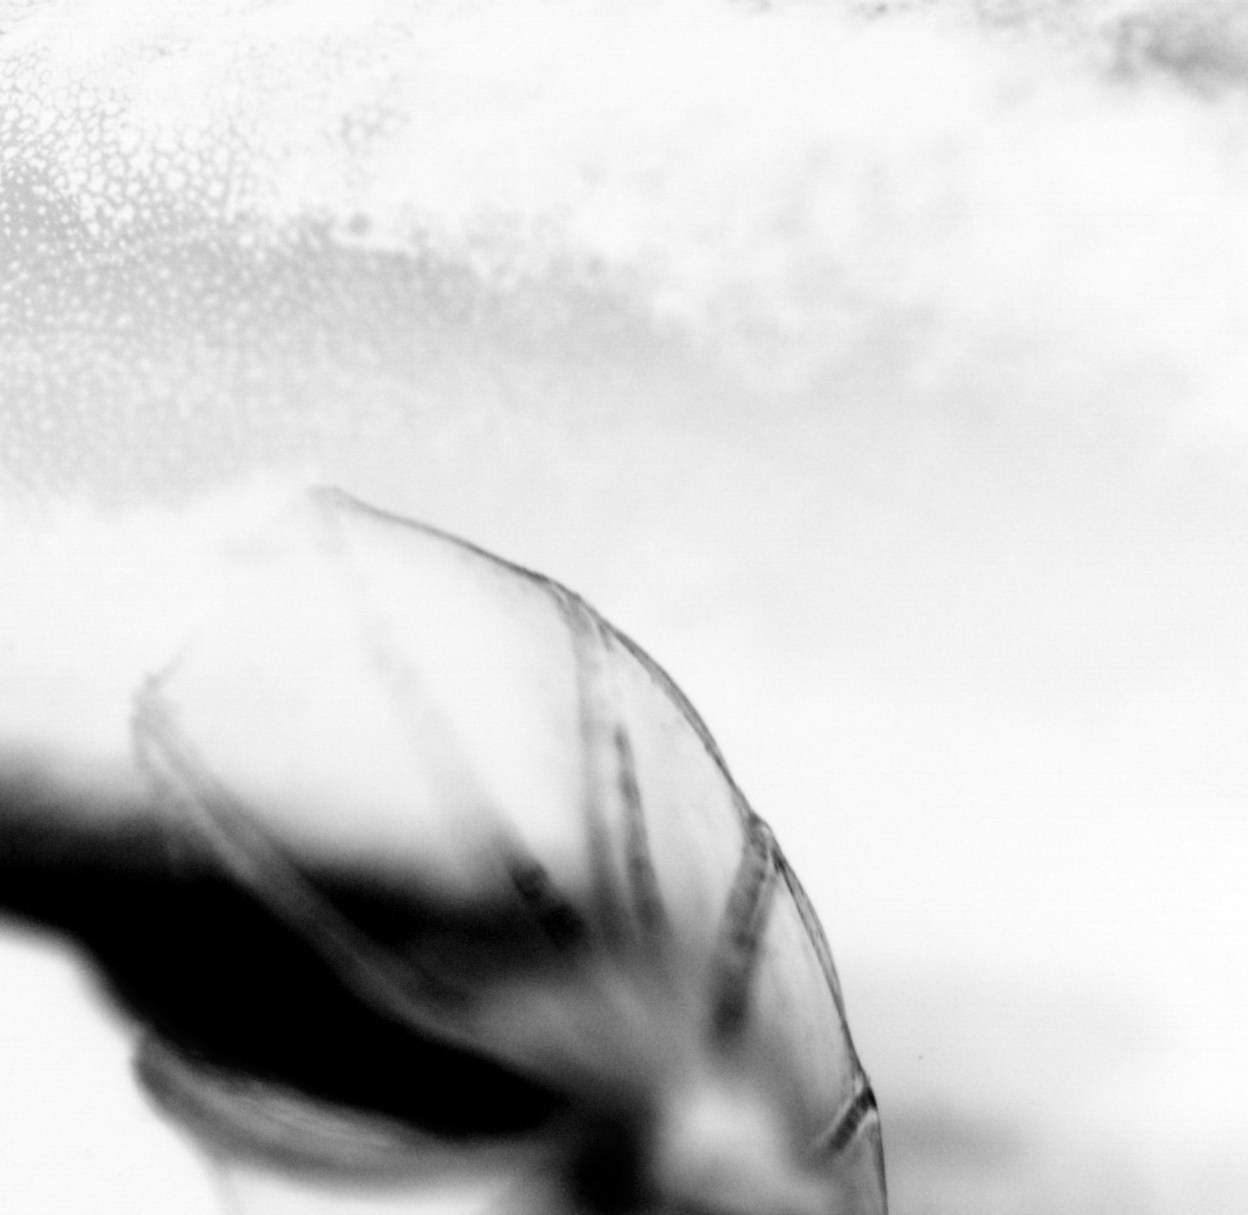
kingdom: Animalia
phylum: Chordata
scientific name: Chordata
